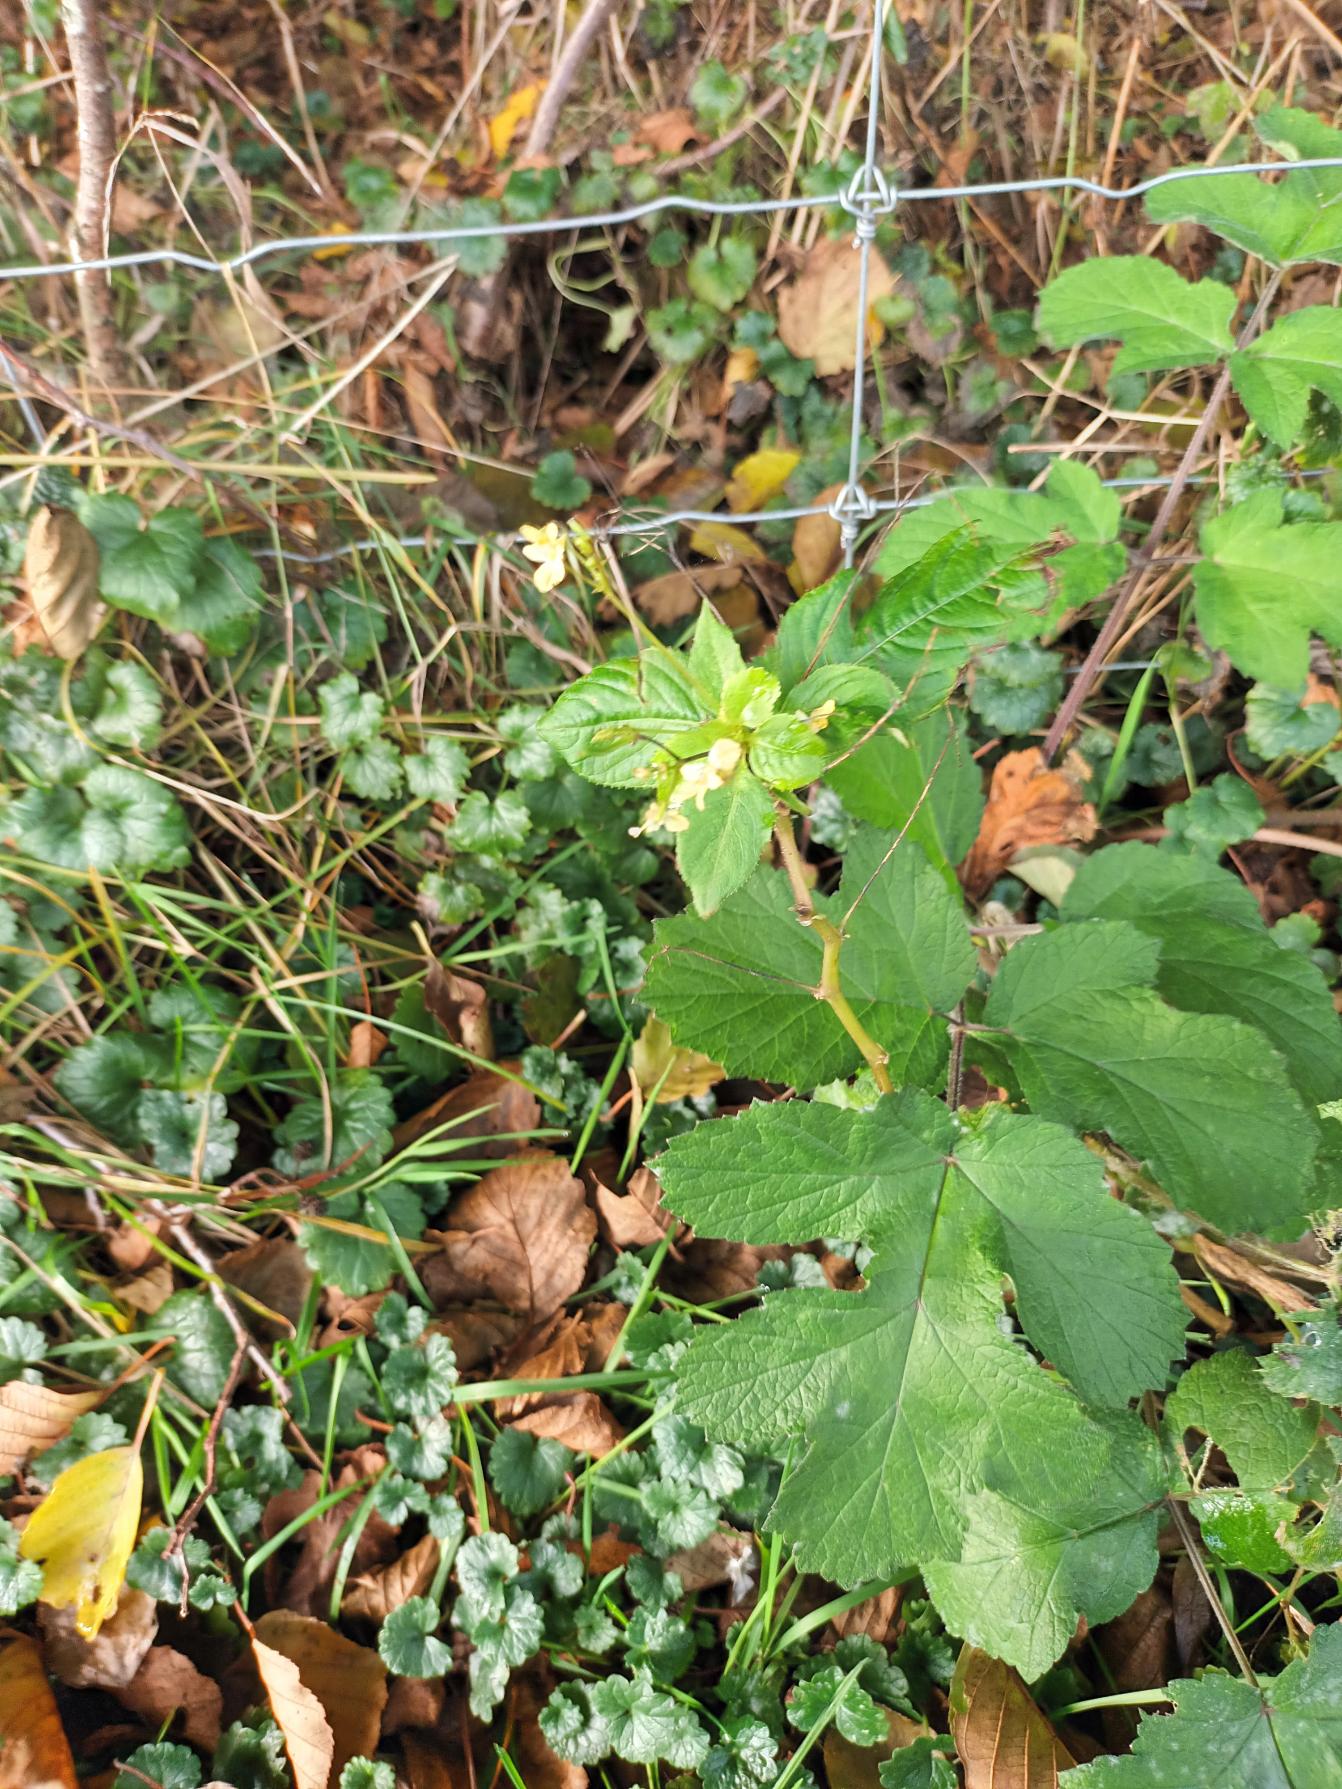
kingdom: Plantae
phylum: Tracheophyta
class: Magnoliopsida
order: Ericales
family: Balsaminaceae
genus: Impatiens
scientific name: Impatiens parviflora
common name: Småblomstret balsamin
